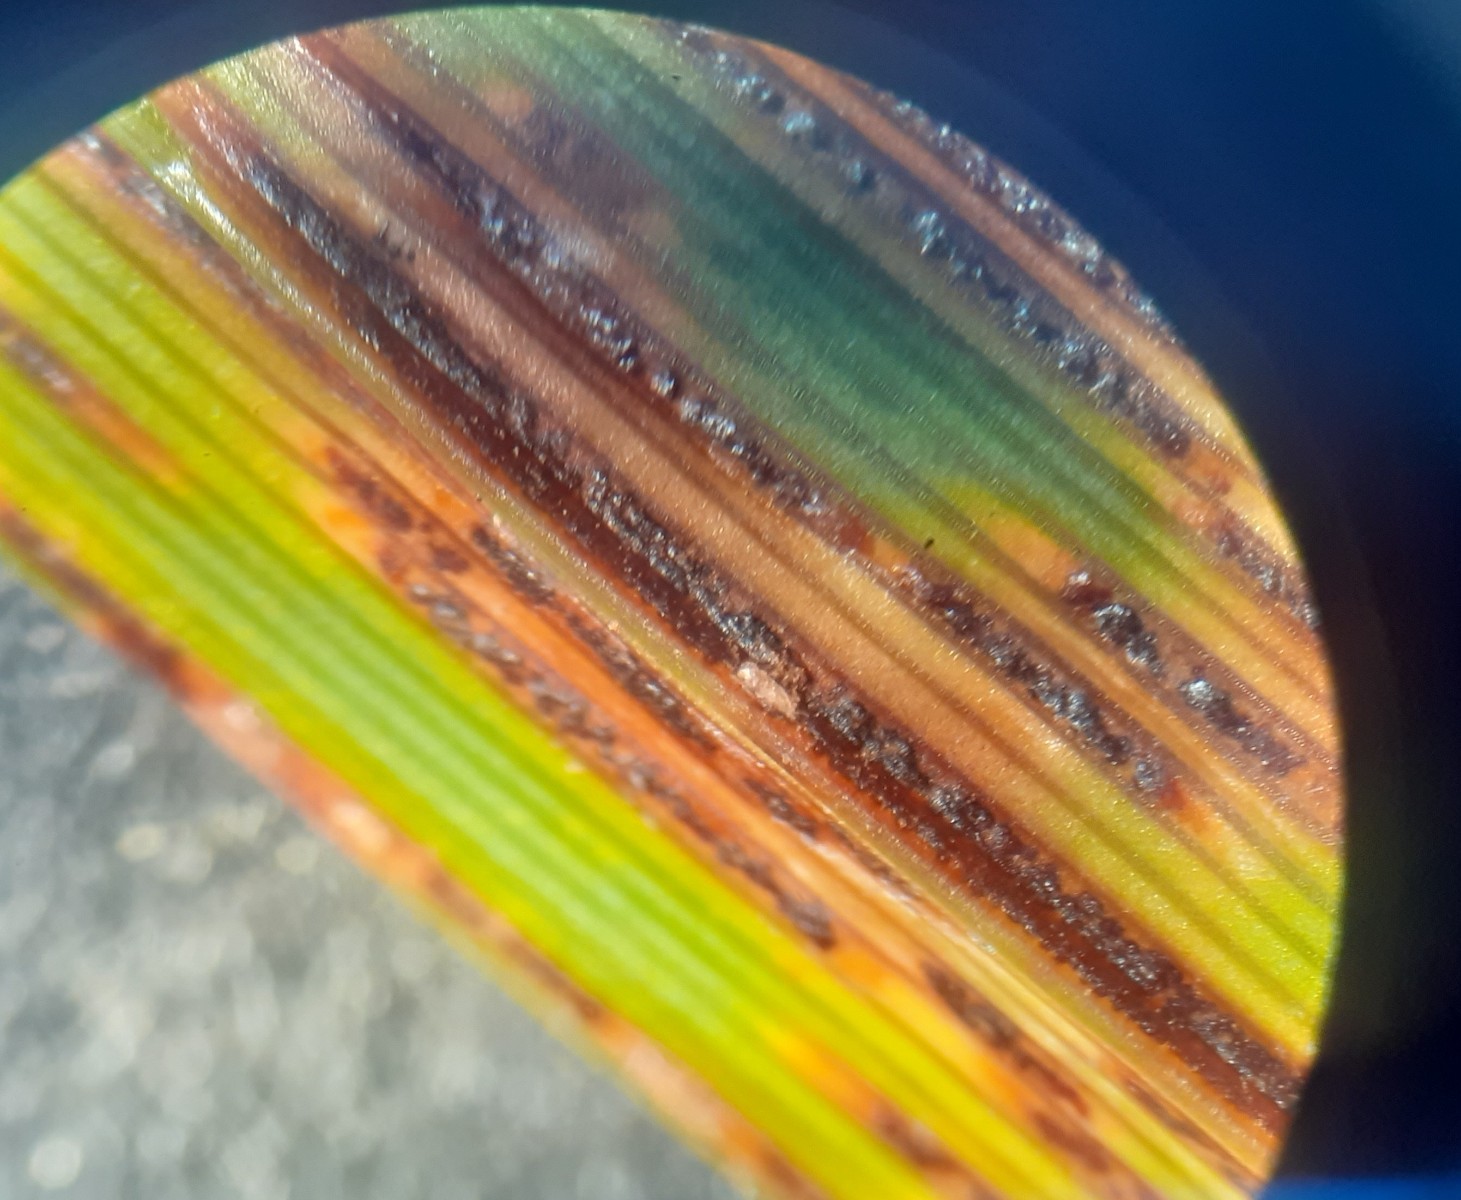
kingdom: Fungi
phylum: Basidiomycota
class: Pucciniomycetes
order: Pucciniales
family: Pucciniaceae
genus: Uromyces
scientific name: Uromyces lineolatus
